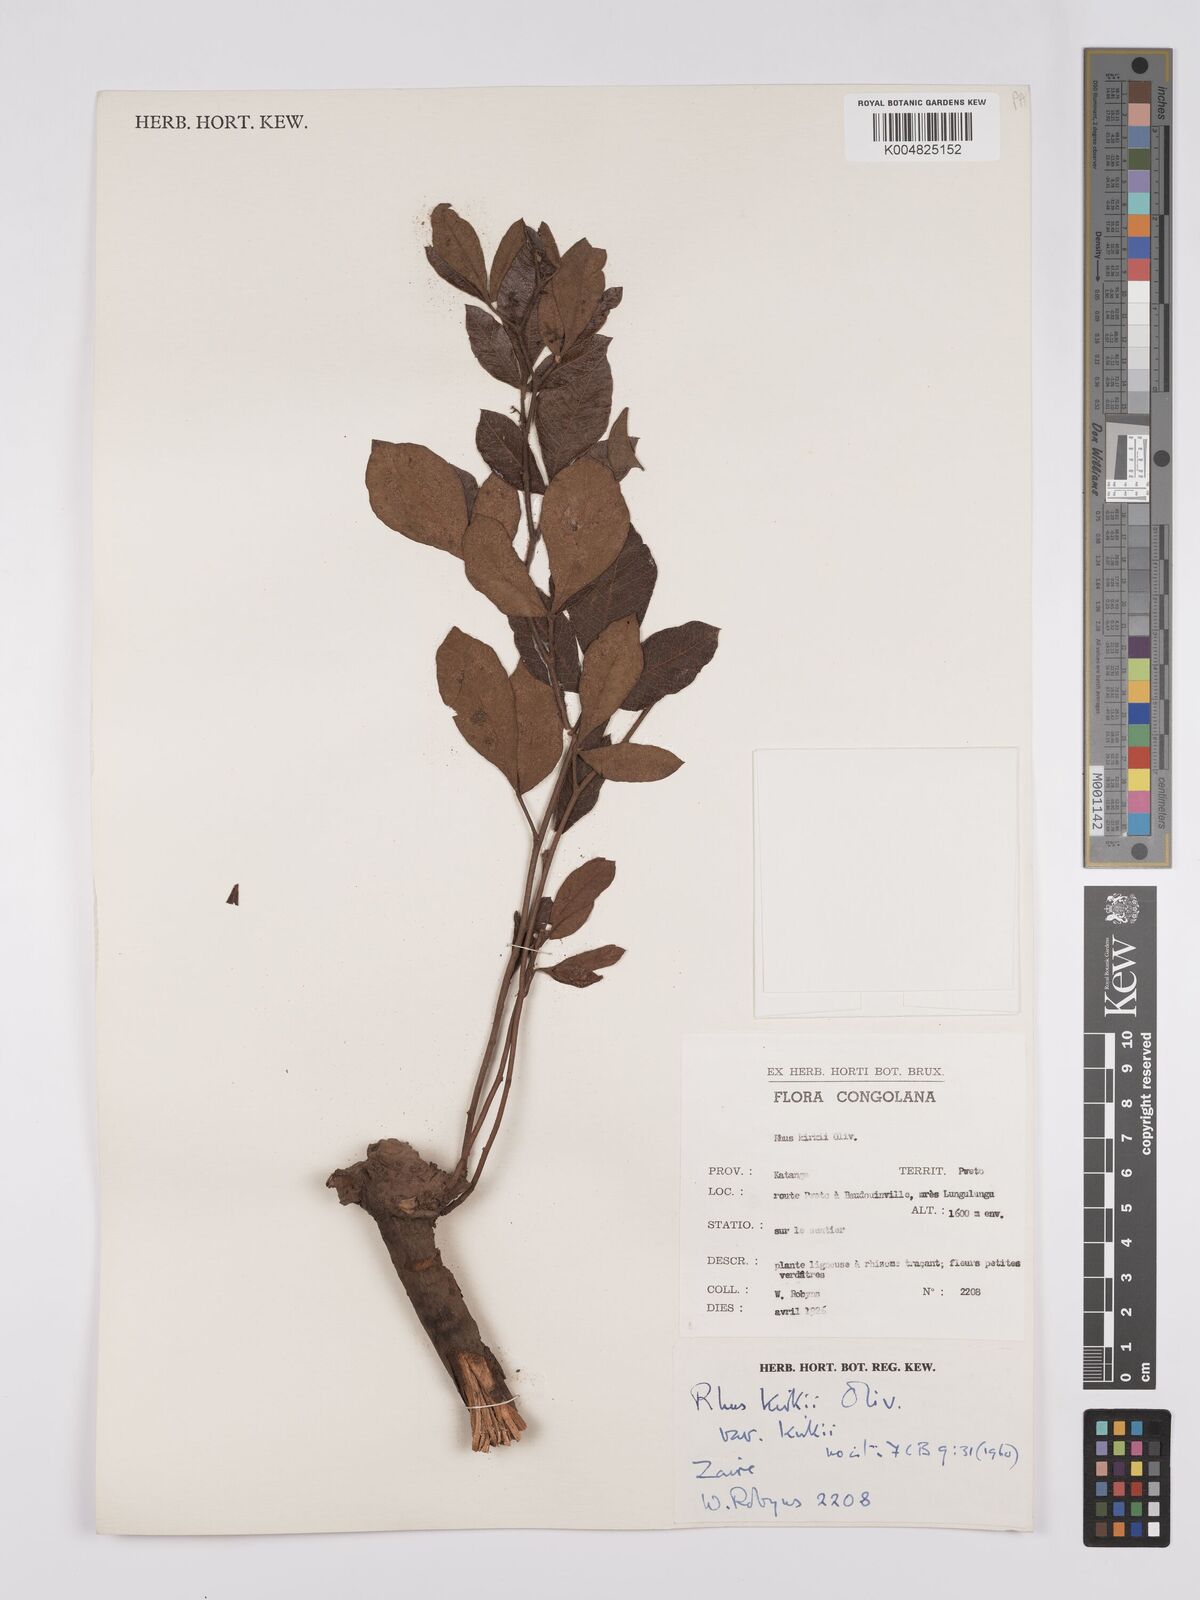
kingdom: Plantae
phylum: Tracheophyta
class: Magnoliopsida
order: Sapindales
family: Anacardiaceae
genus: Searsia
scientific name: Searsia kirkii
